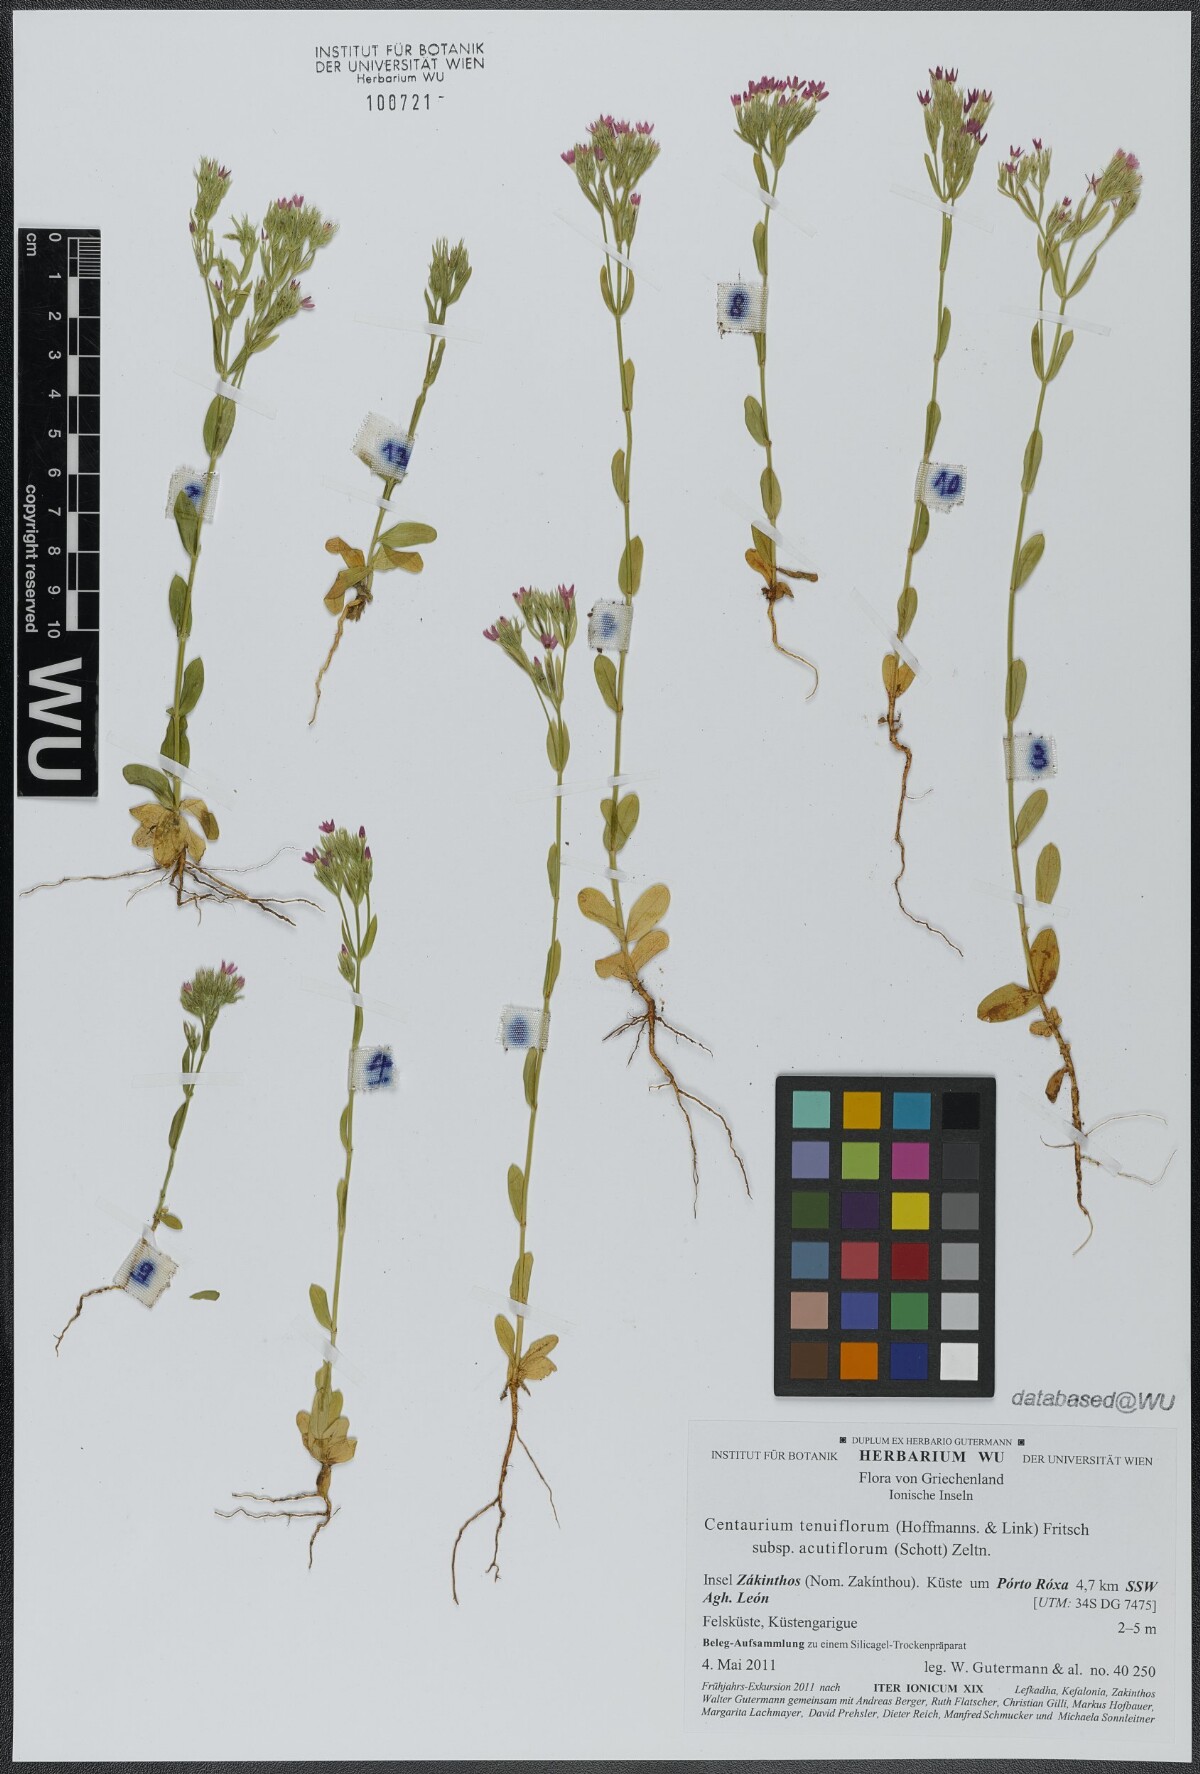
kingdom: Plantae
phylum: Tracheophyta
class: Magnoliopsida
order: Gentianales
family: Gentianaceae
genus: Centaurium
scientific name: Centaurium tenuiflorum
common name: Slender centaury
